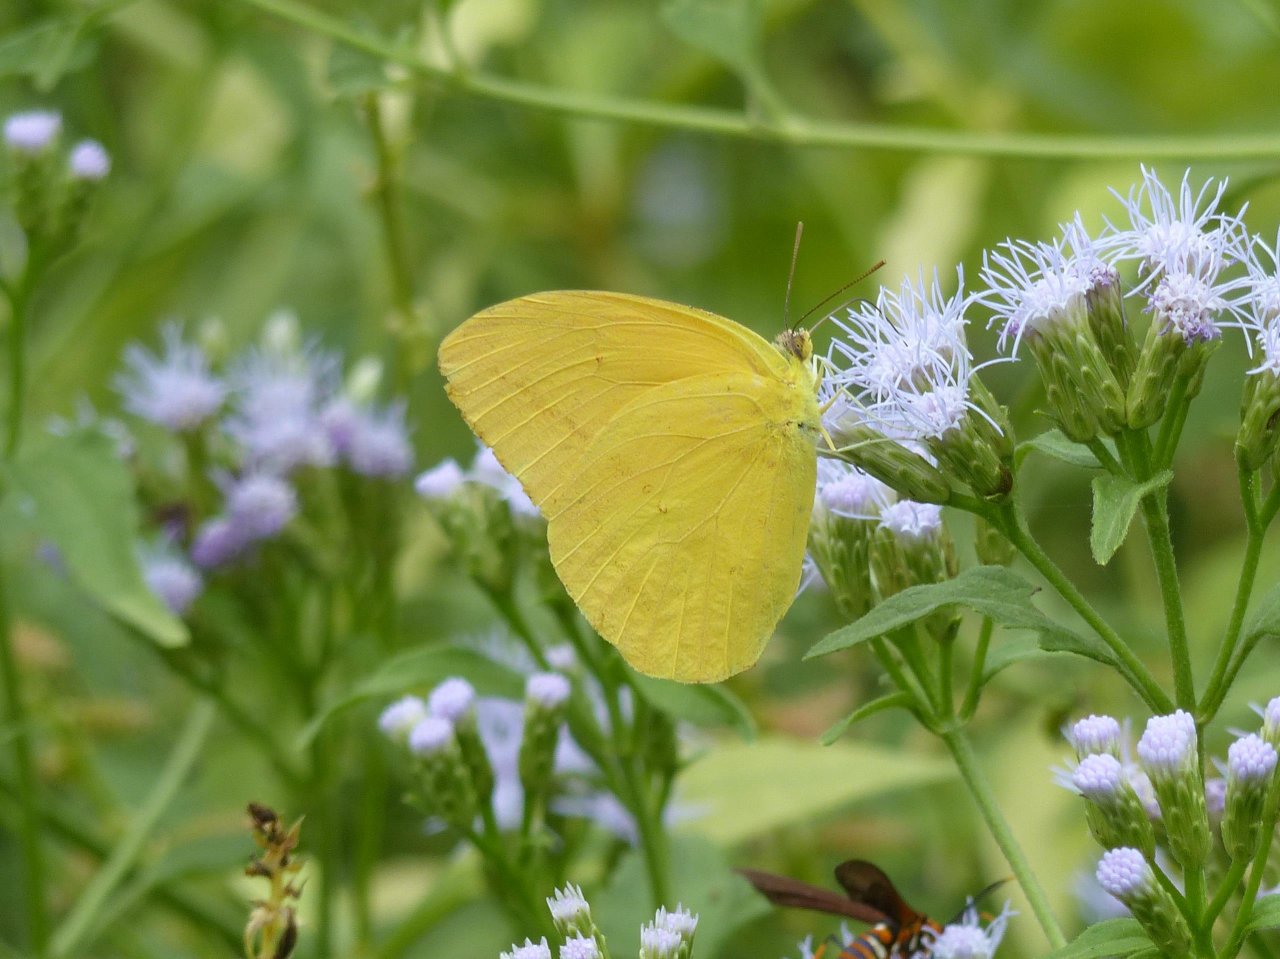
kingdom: Animalia
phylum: Arthropoda
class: Insecta
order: Lepidoptera
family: Pieridae
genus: Phoebis
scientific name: Phoebis agarithe
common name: Large Orange Sulphur
